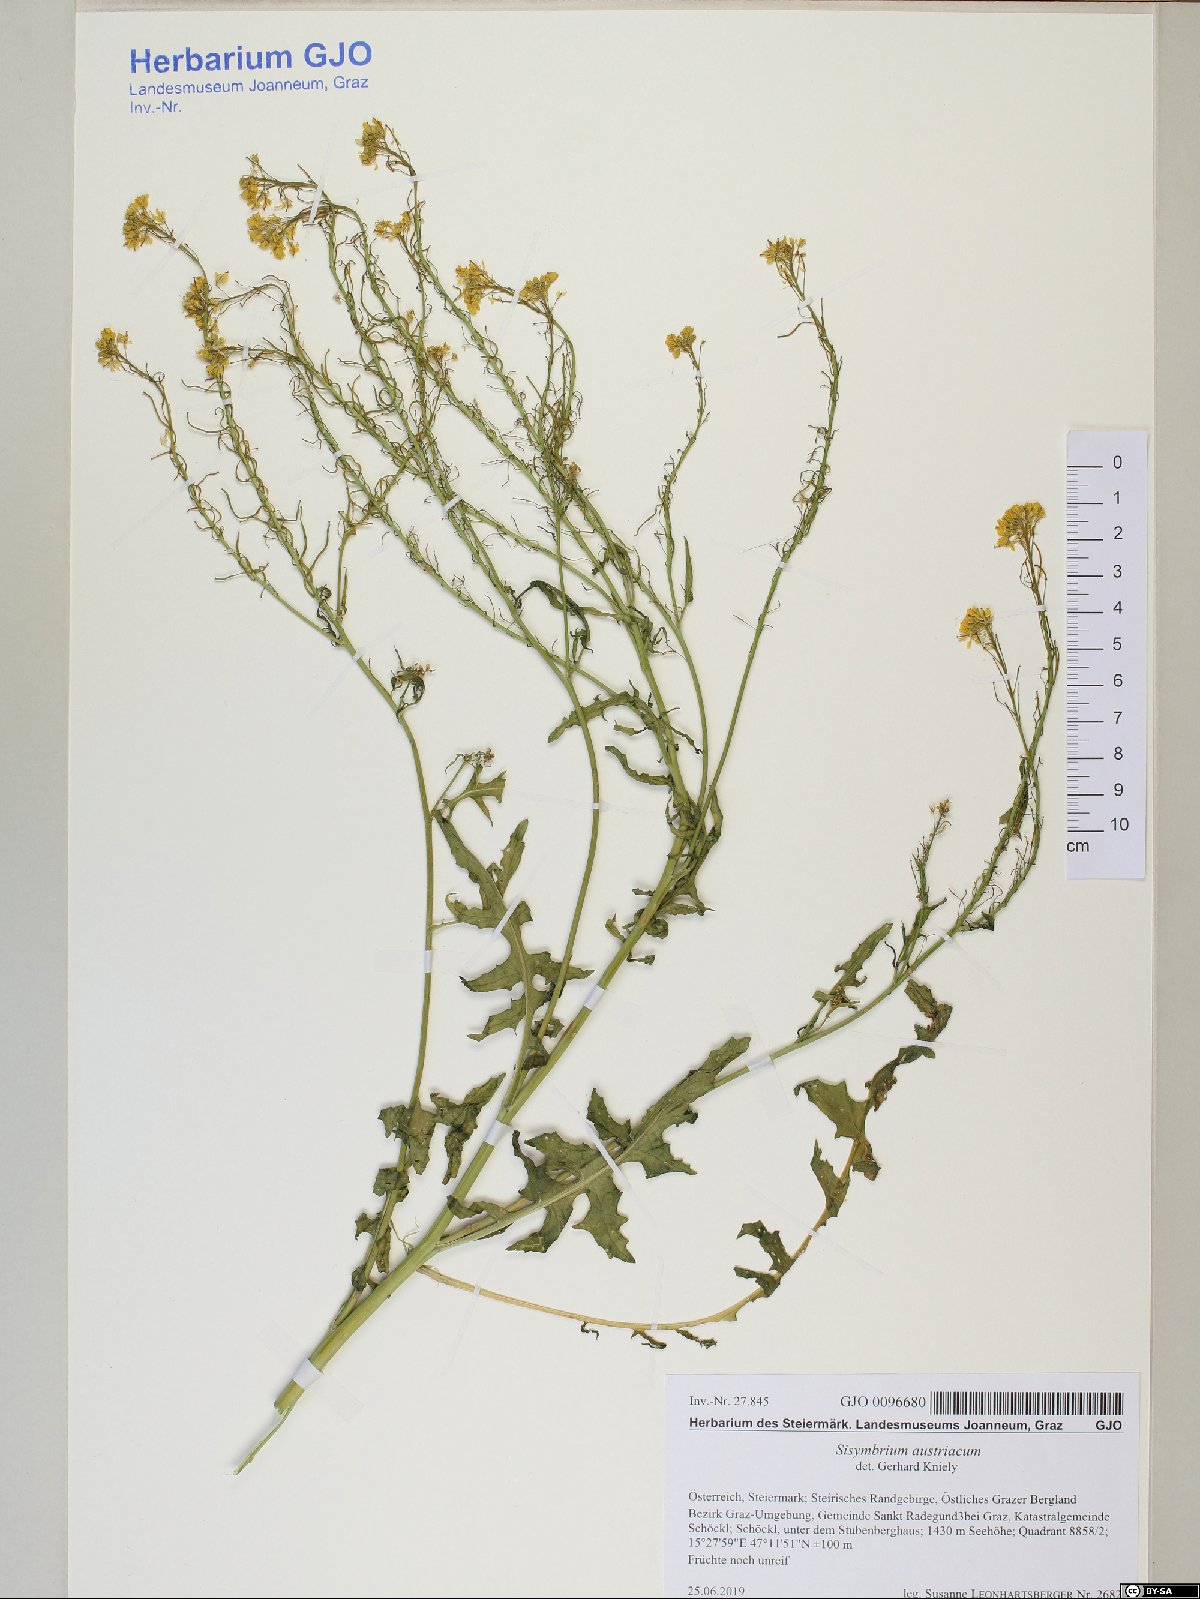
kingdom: Plantae
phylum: Tracheophyta
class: Magnoliopsida
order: Brassicales
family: Brassicaceae
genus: Sisymbrium
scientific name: Sisymbrium austriacum
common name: Jeweled rocket
